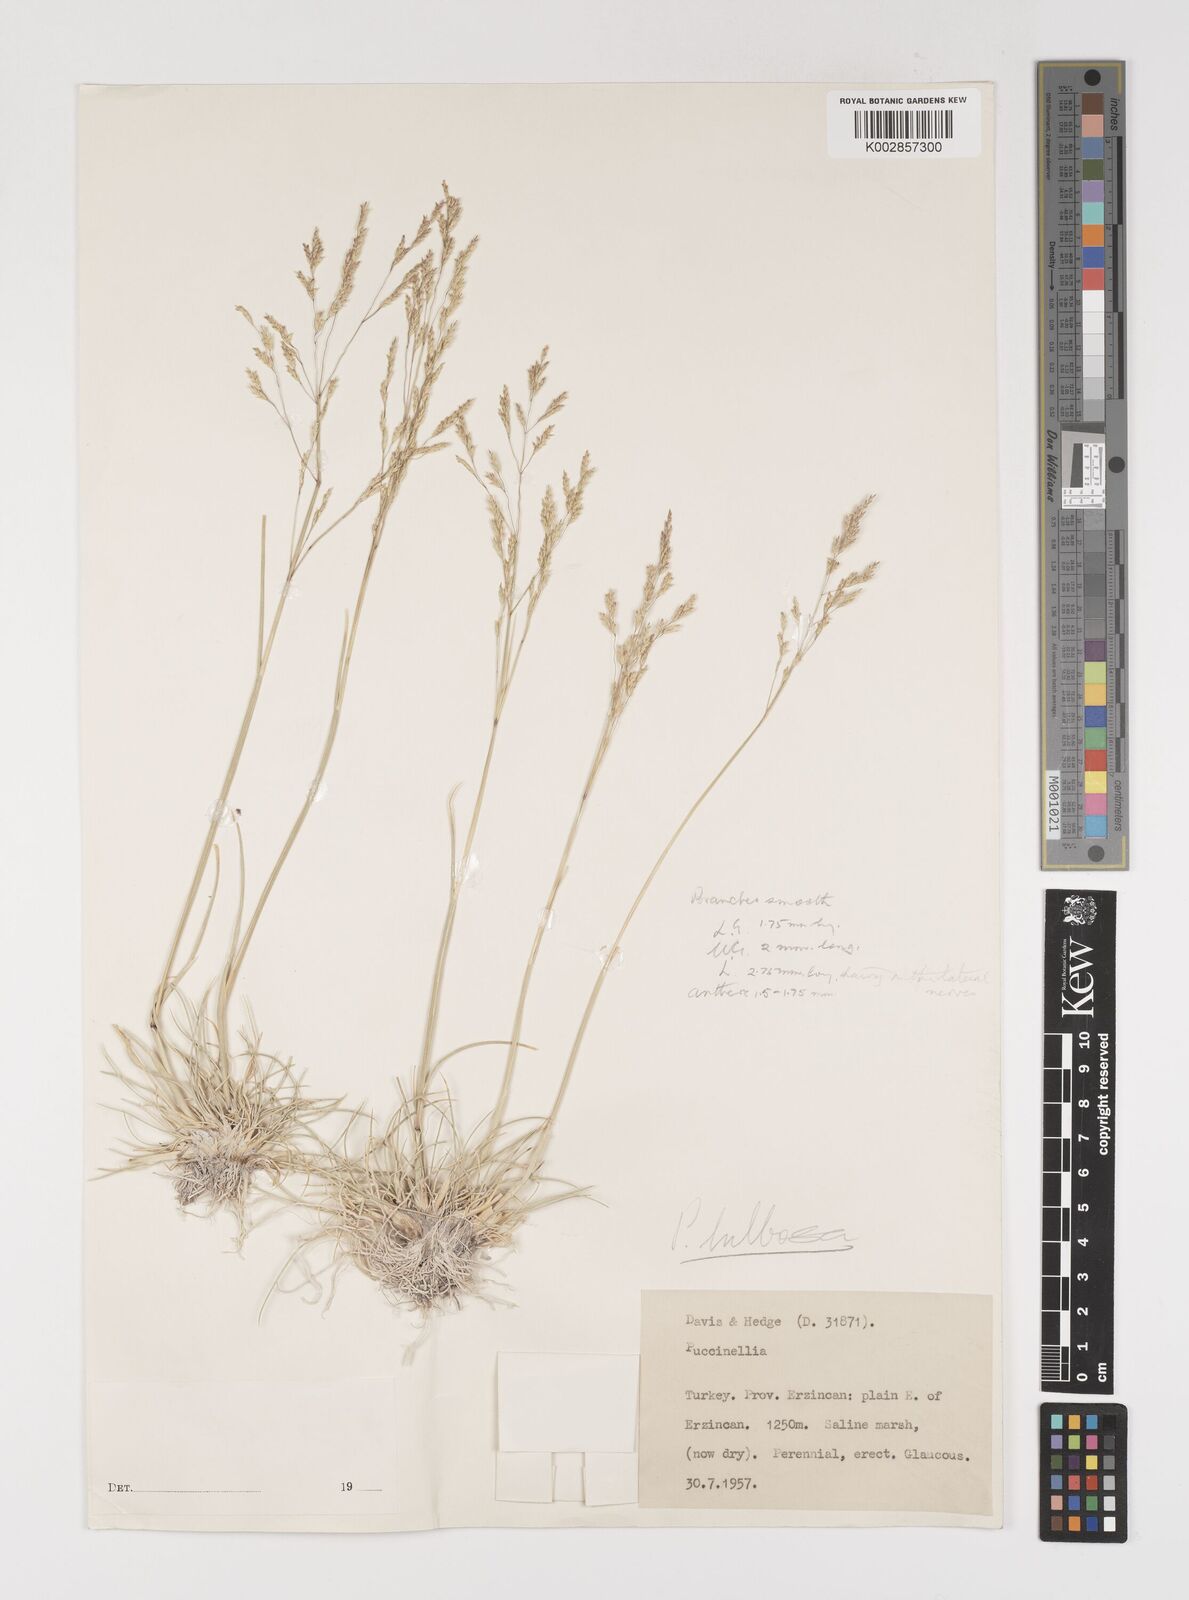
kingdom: Plantae
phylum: Tracheophyta
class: Liliopsida
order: Poales
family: Poaceae
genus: Puccinellia
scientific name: Puccinellia
